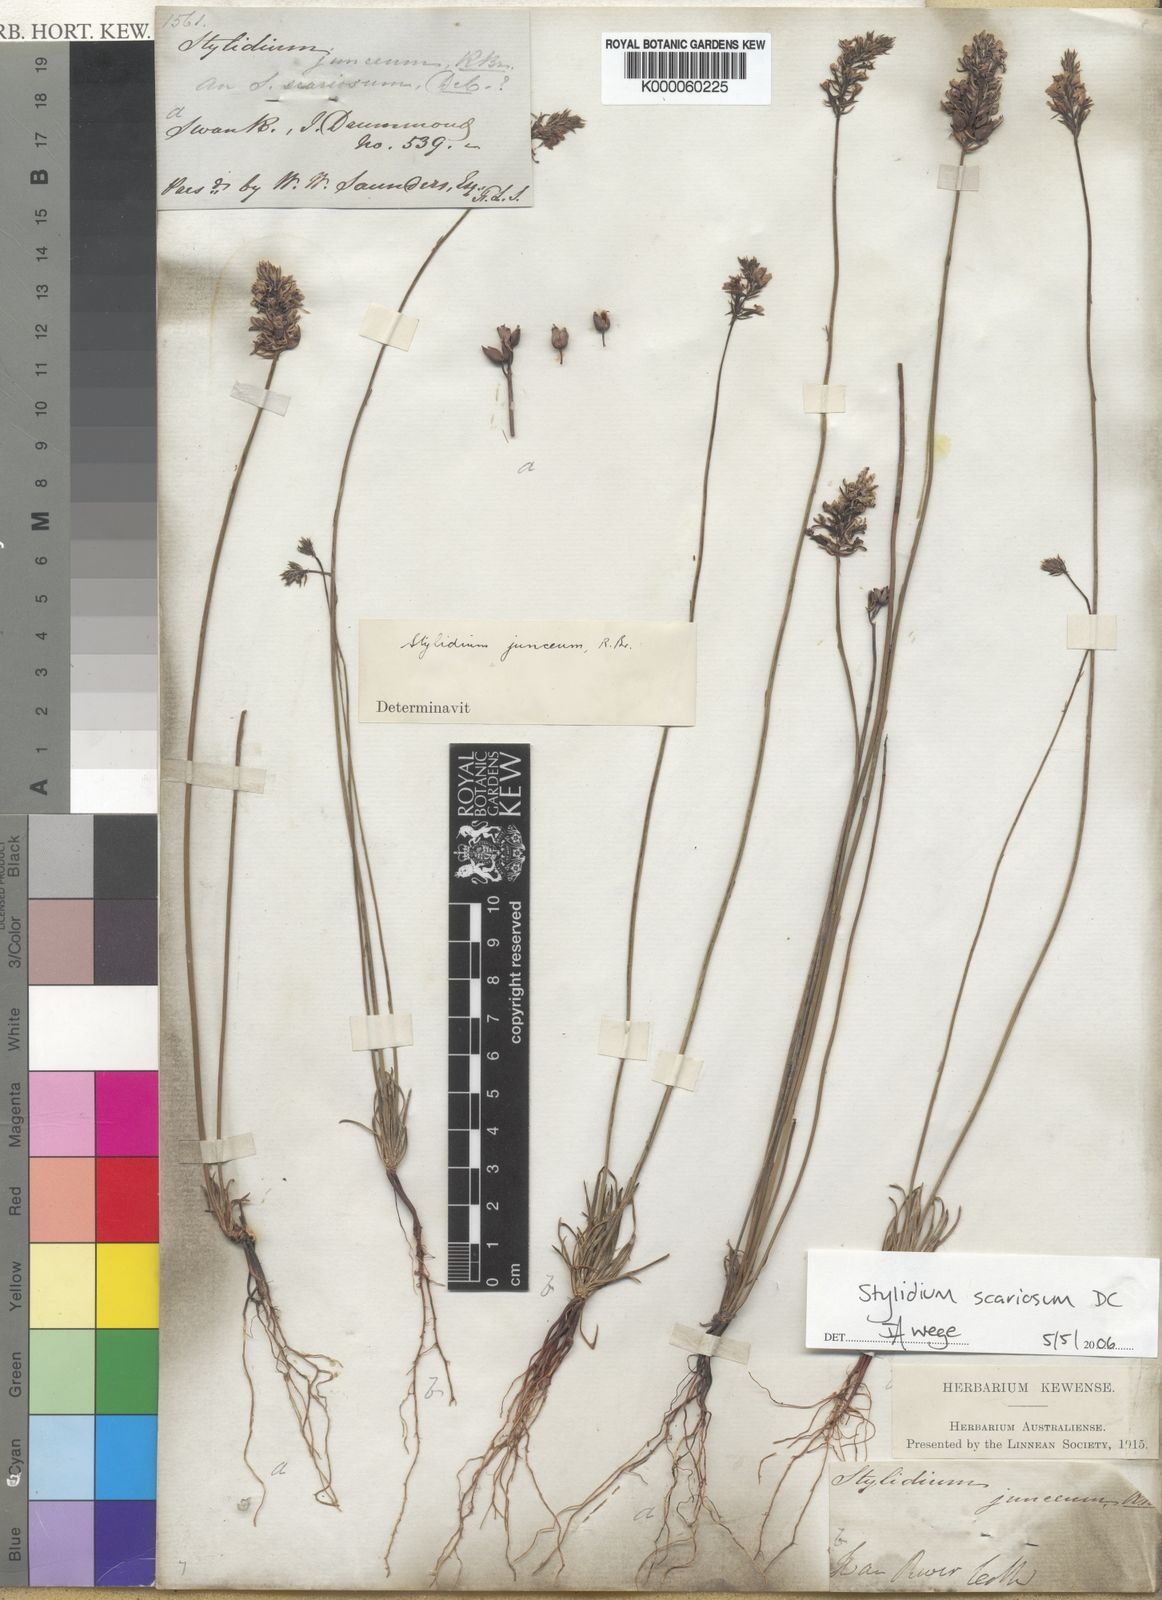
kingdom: Plantae
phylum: Tracheophyta
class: Magnoliopsida
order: Asterales
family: Stylidiaceae
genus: Stylidium
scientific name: Stylidium scariosum
